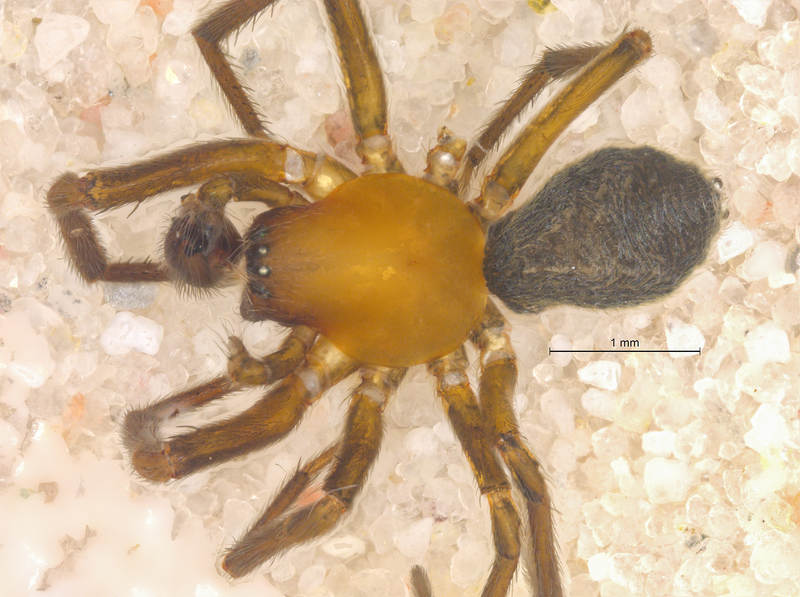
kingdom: Animalia
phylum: Arthropoda
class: Arachnida
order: Araneae
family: Titanoecidae
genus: Titanoeca
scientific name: Titanoeca spominima
